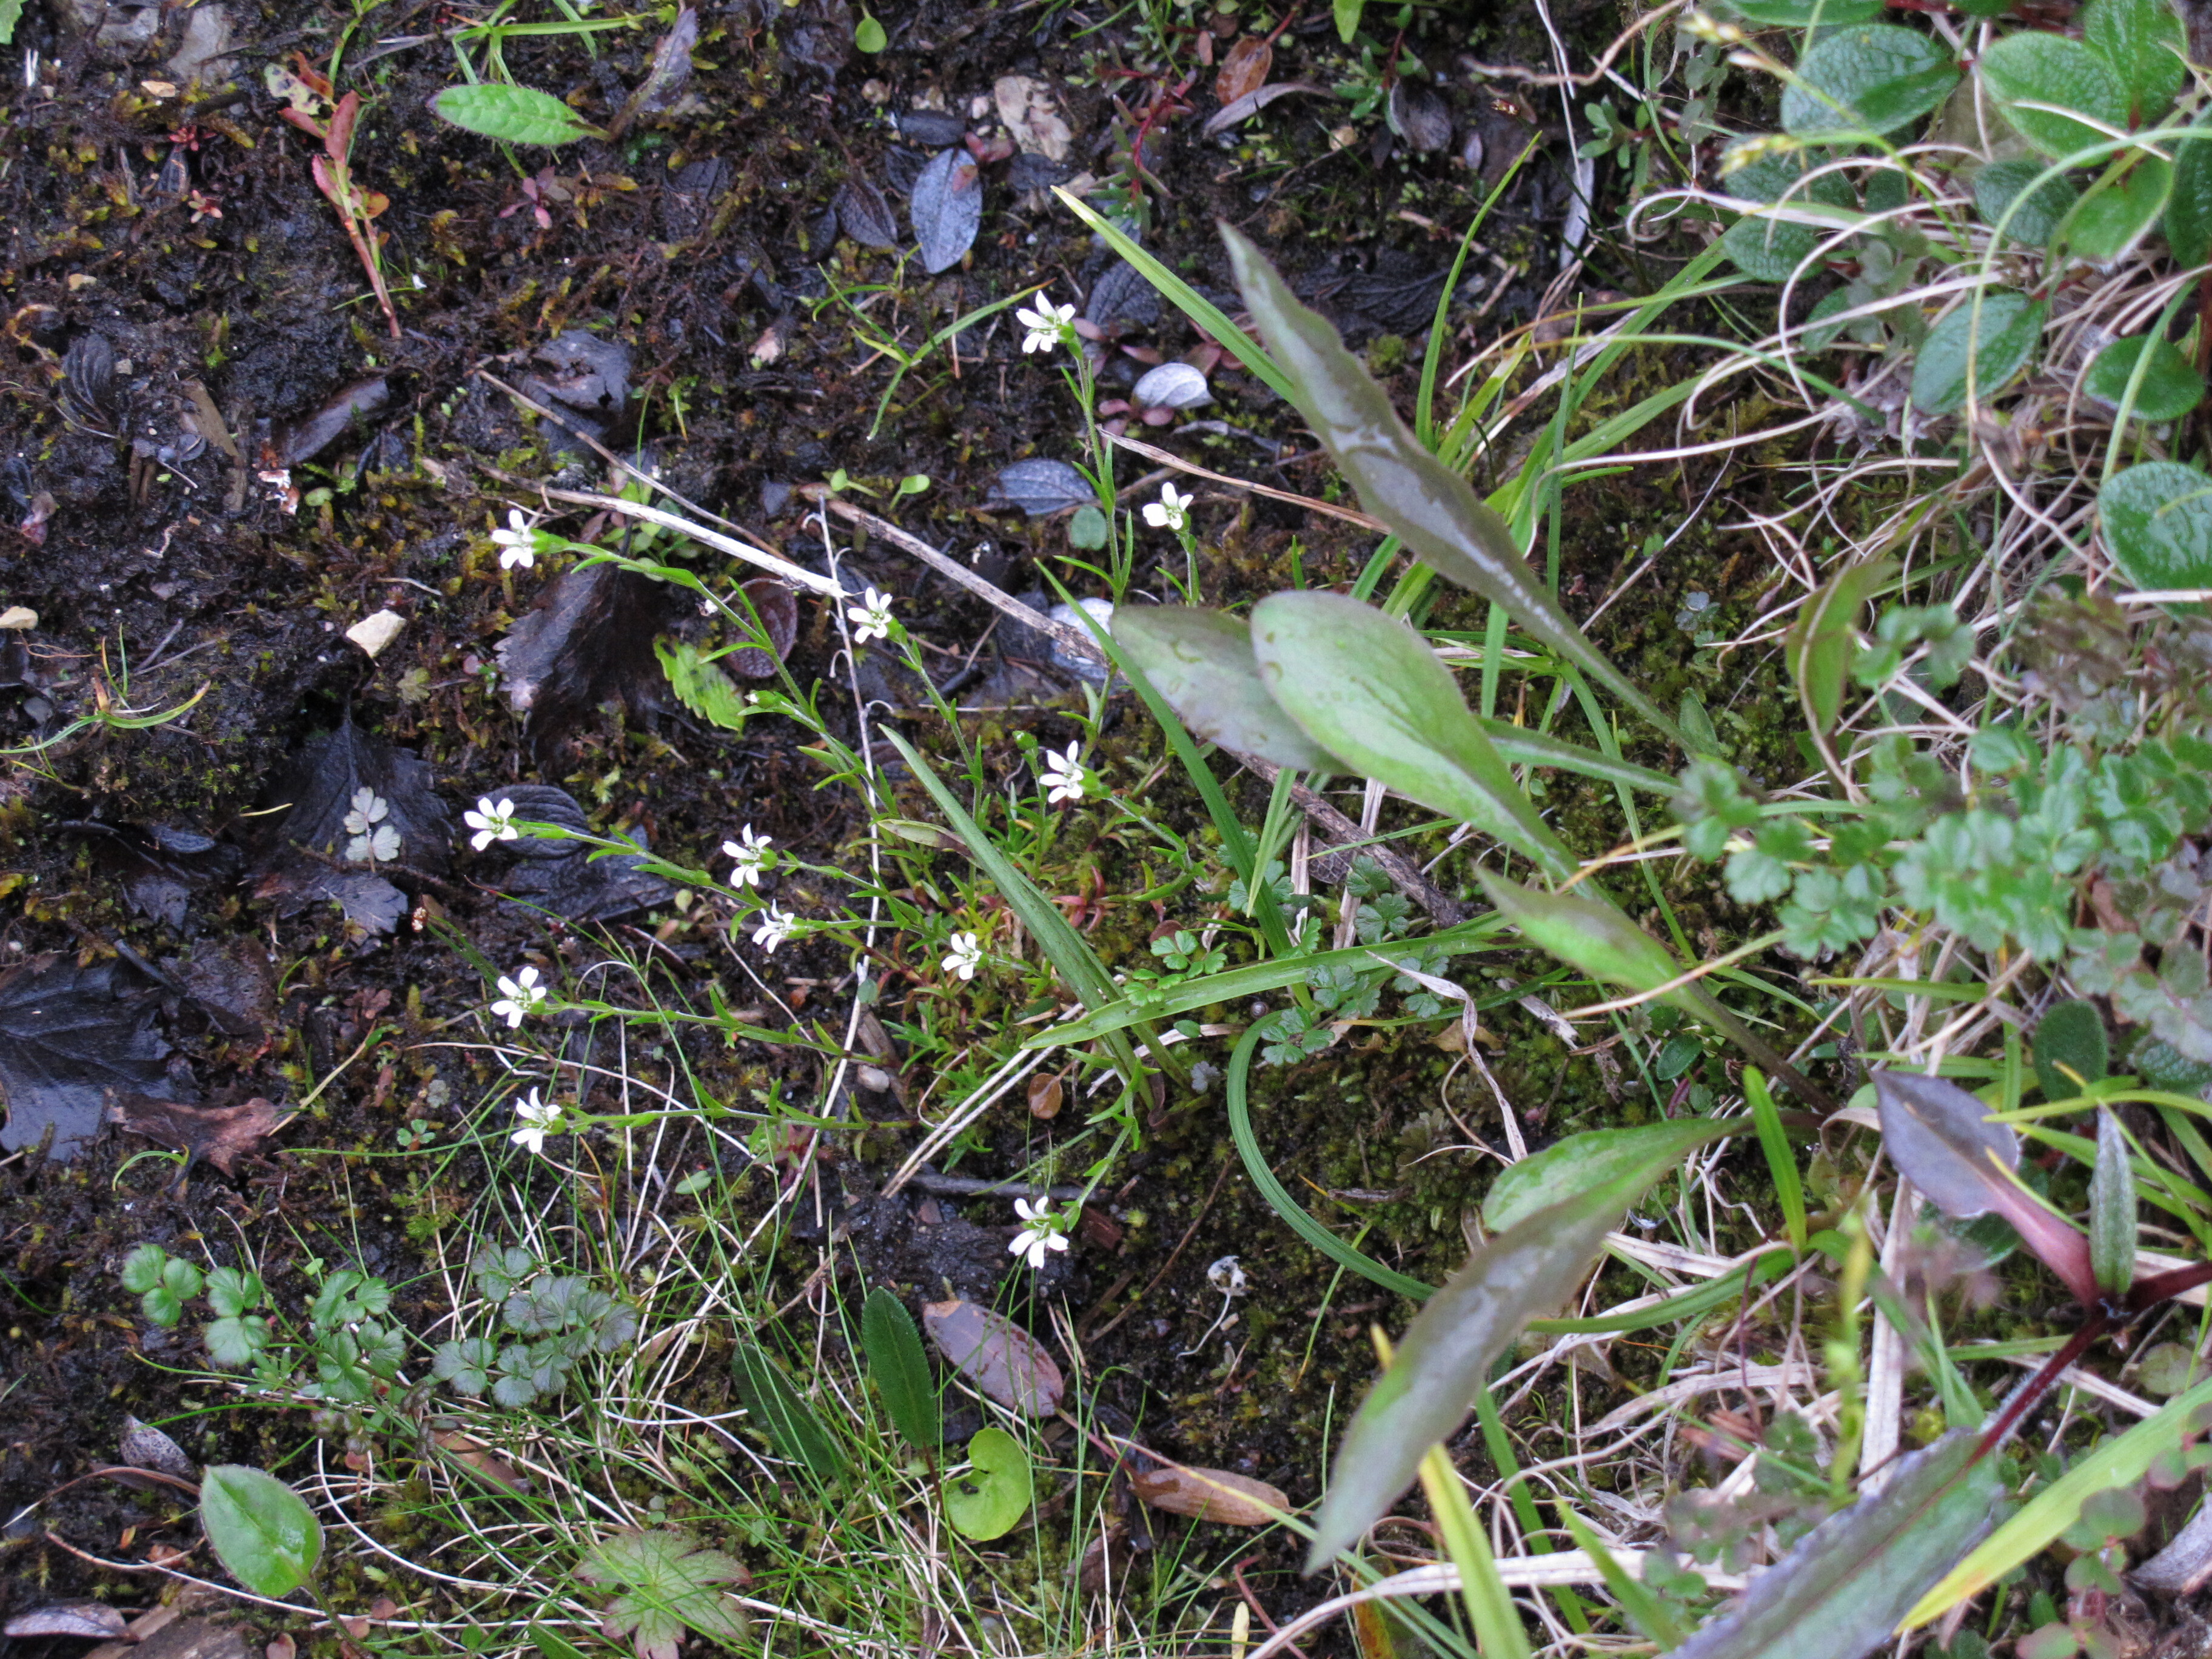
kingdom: Plantae
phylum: Tracheophyta
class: Magnoliopsida
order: Caryophyllales
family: Caryophyllaceae
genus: Cherleria
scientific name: Cherleria biflora
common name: Mountain sandwort
